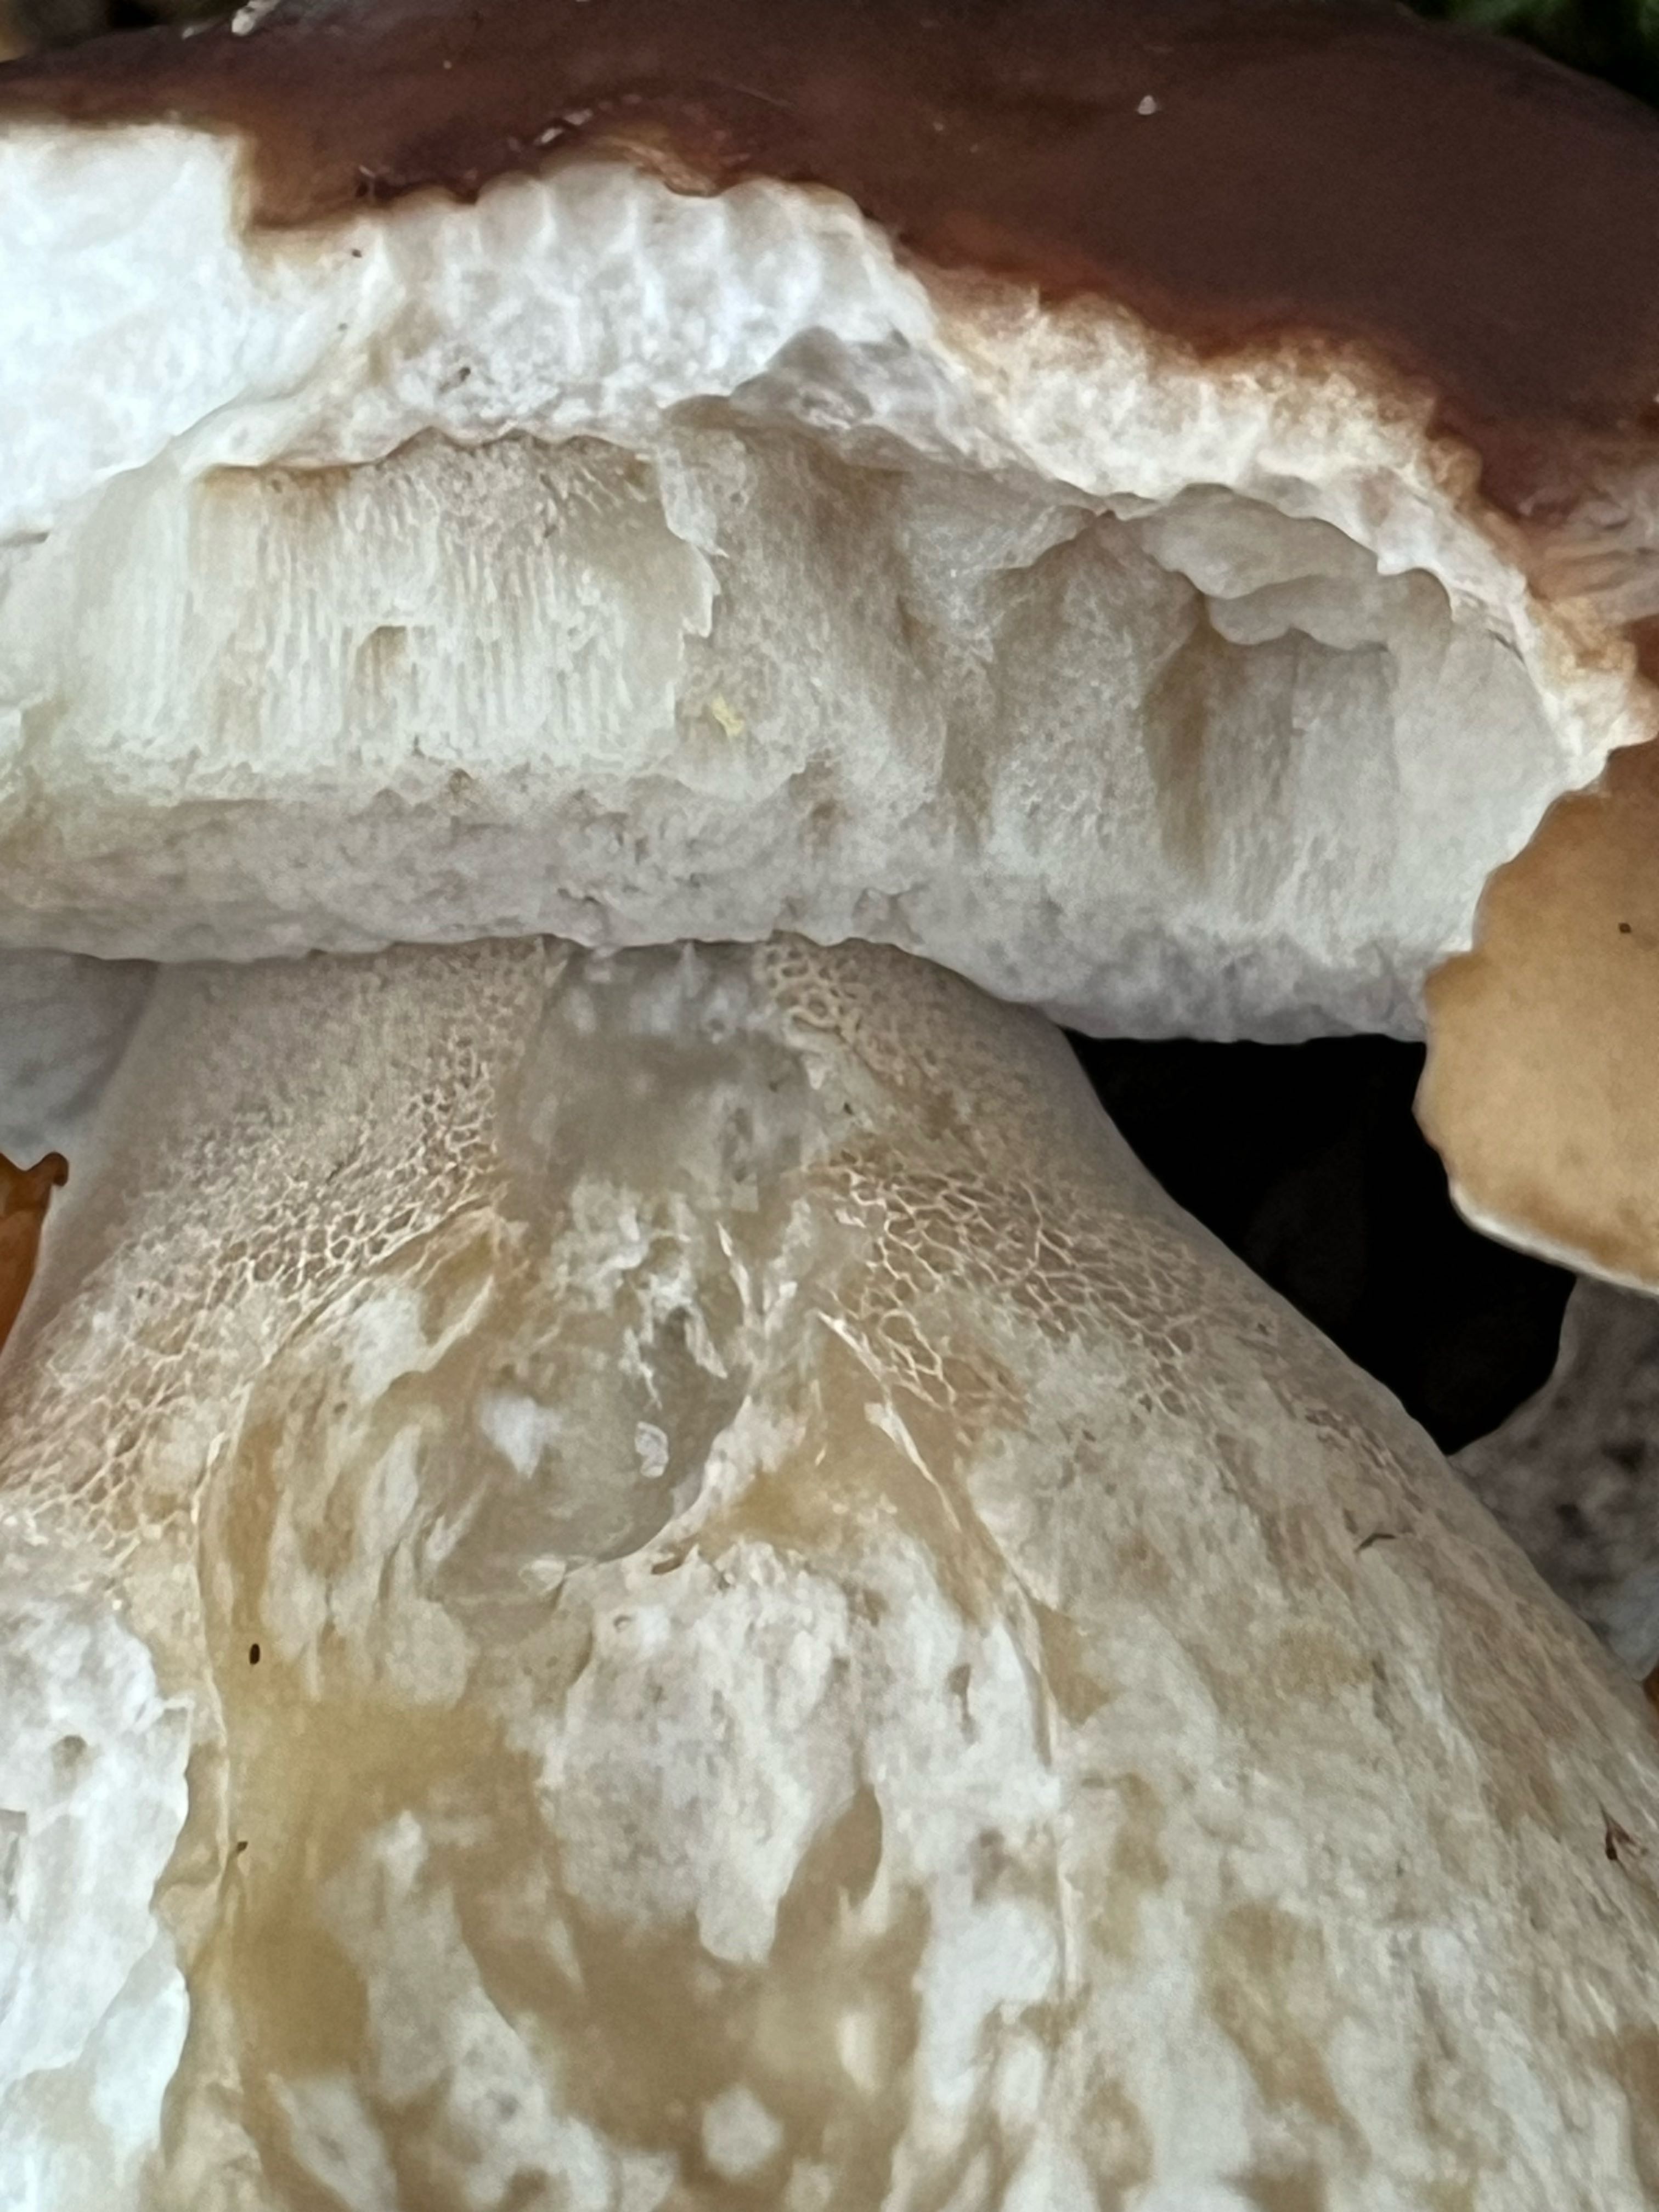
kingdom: Fungi
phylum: Basidiomycota
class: Agaricomycetes
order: Boletales
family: Boletaceae
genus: Boletus
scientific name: Boletus edulis
